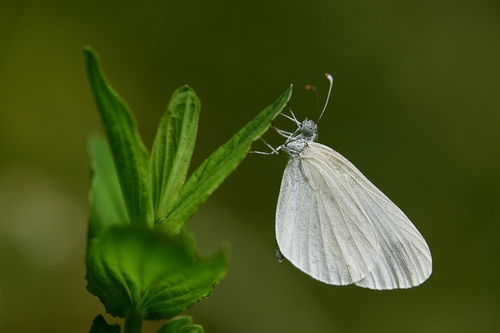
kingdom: Animalia
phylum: Arthropoda
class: Insecta
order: Lepidoptera
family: Pieridae
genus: Leptidea
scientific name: Leptidea sinapis
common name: Wood white
